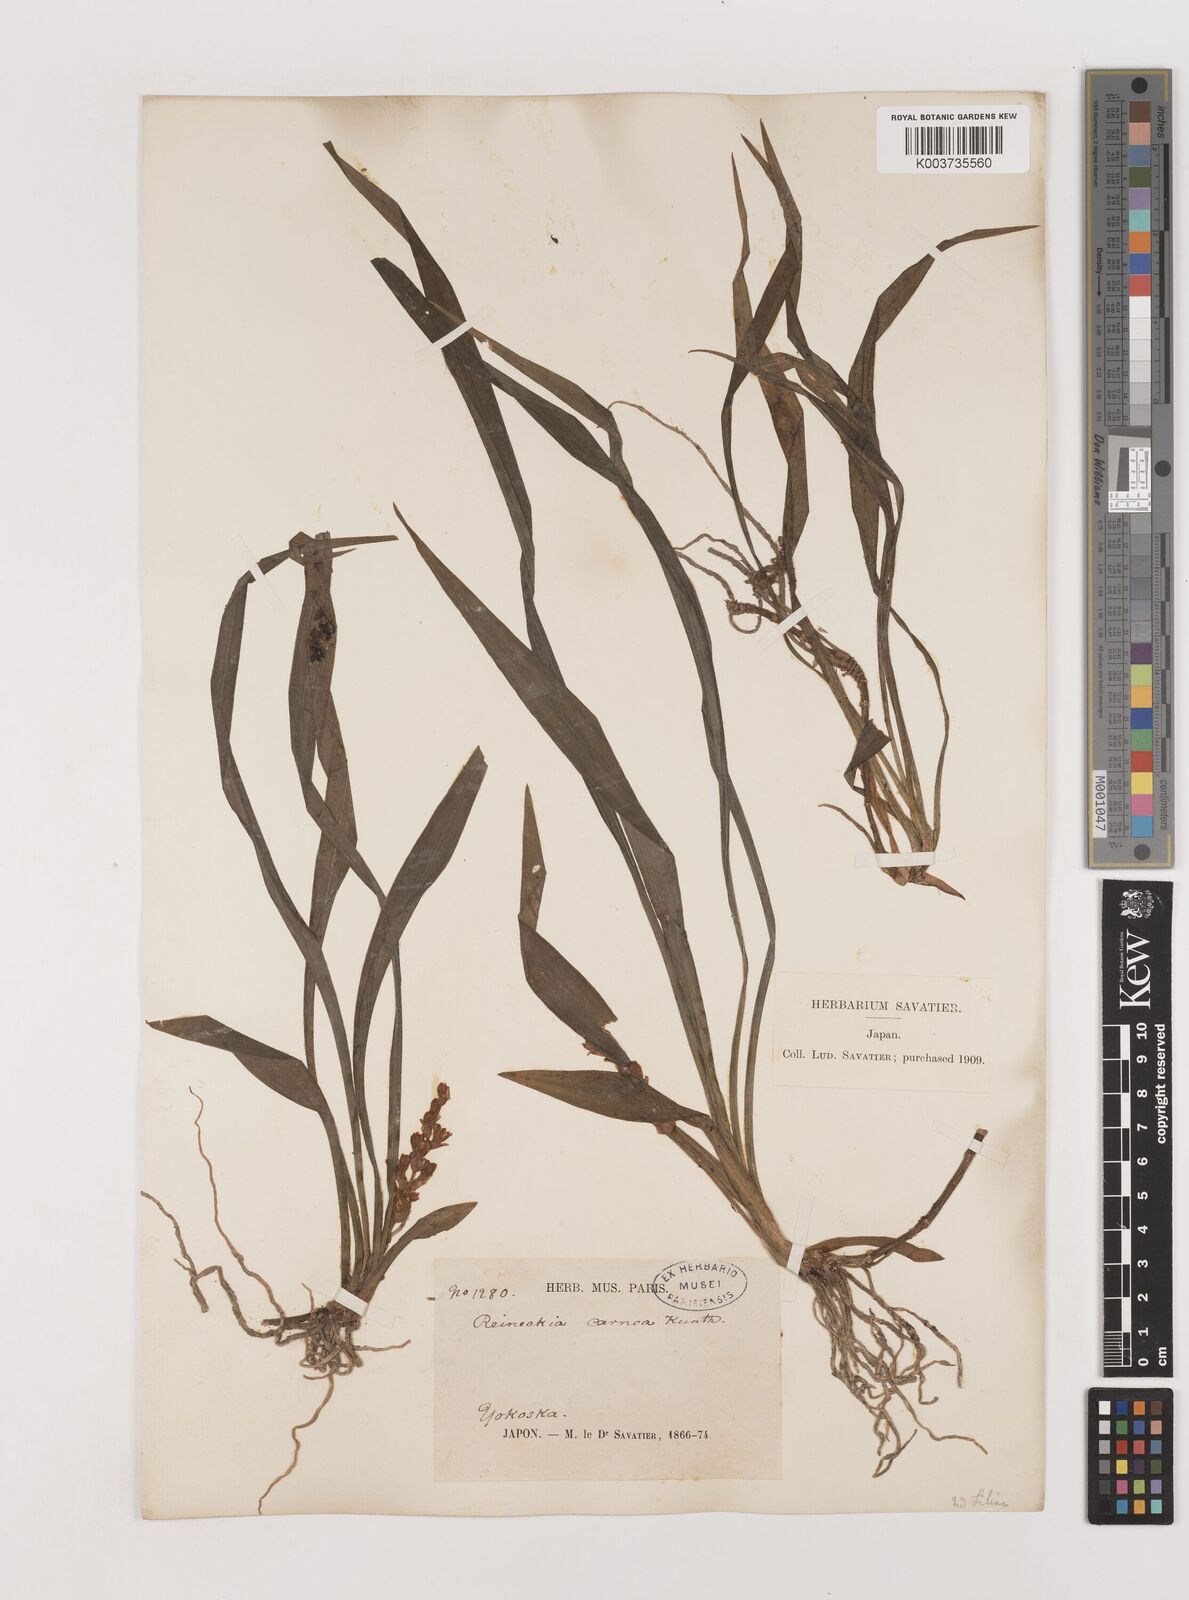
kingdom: Plantae
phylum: Tracheophyta
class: Liliopsida
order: Asparagales
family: Asparagaceae
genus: Reineckea
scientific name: Reineckea carnea
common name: Reineckea
